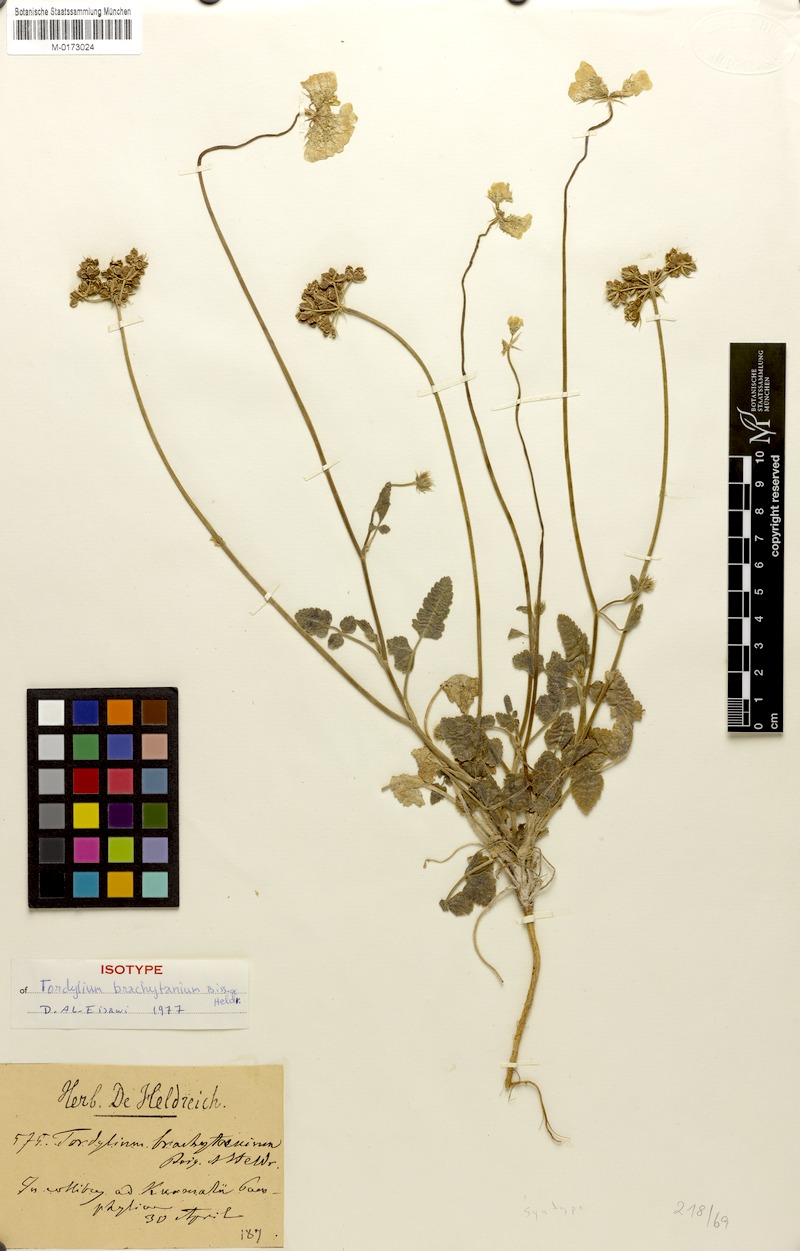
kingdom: Plantae
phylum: Tracheophyta
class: Magnoliopsida
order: Apiales
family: Apiaceae
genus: Tordylium
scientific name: Tordylium brachytaenium
